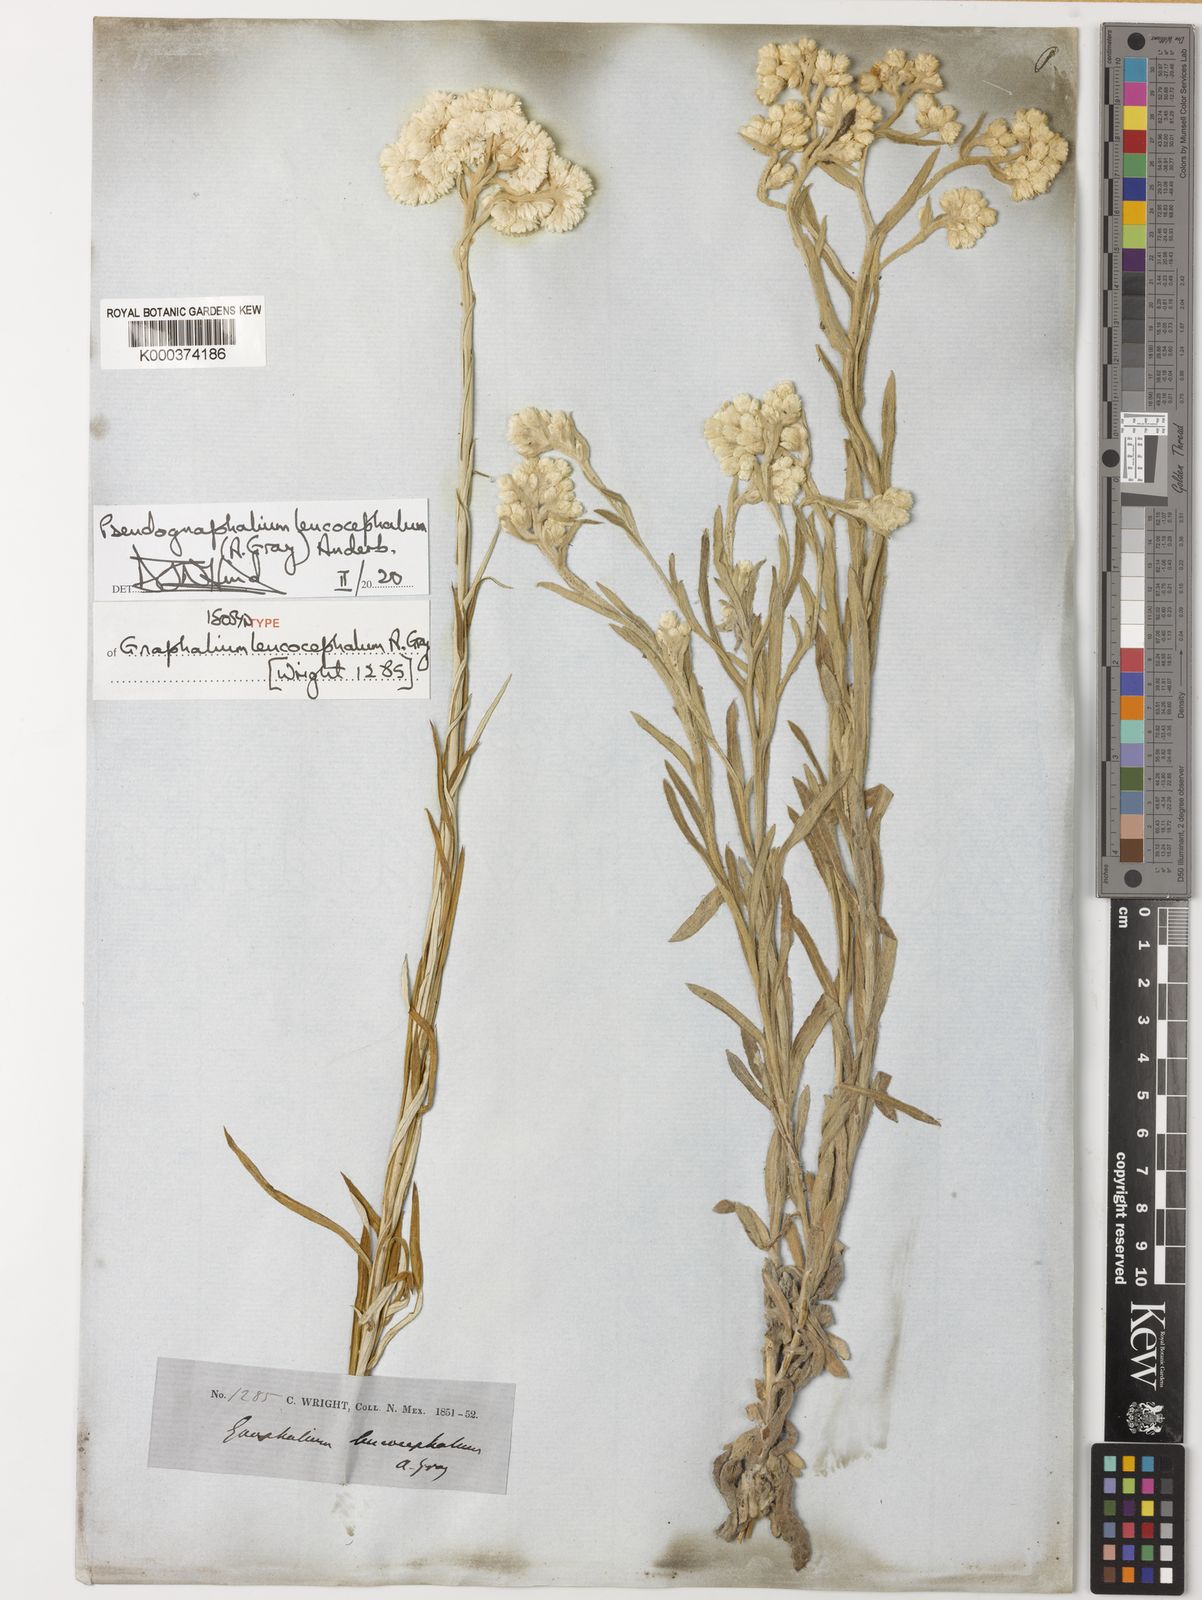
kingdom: Plantae
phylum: Tracheophyta
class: Magnoliopsida
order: Asterales
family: Asteraceae
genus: Pseudognaphalium
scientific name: Pseudognaphalium leucocephalum
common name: White cudweed
